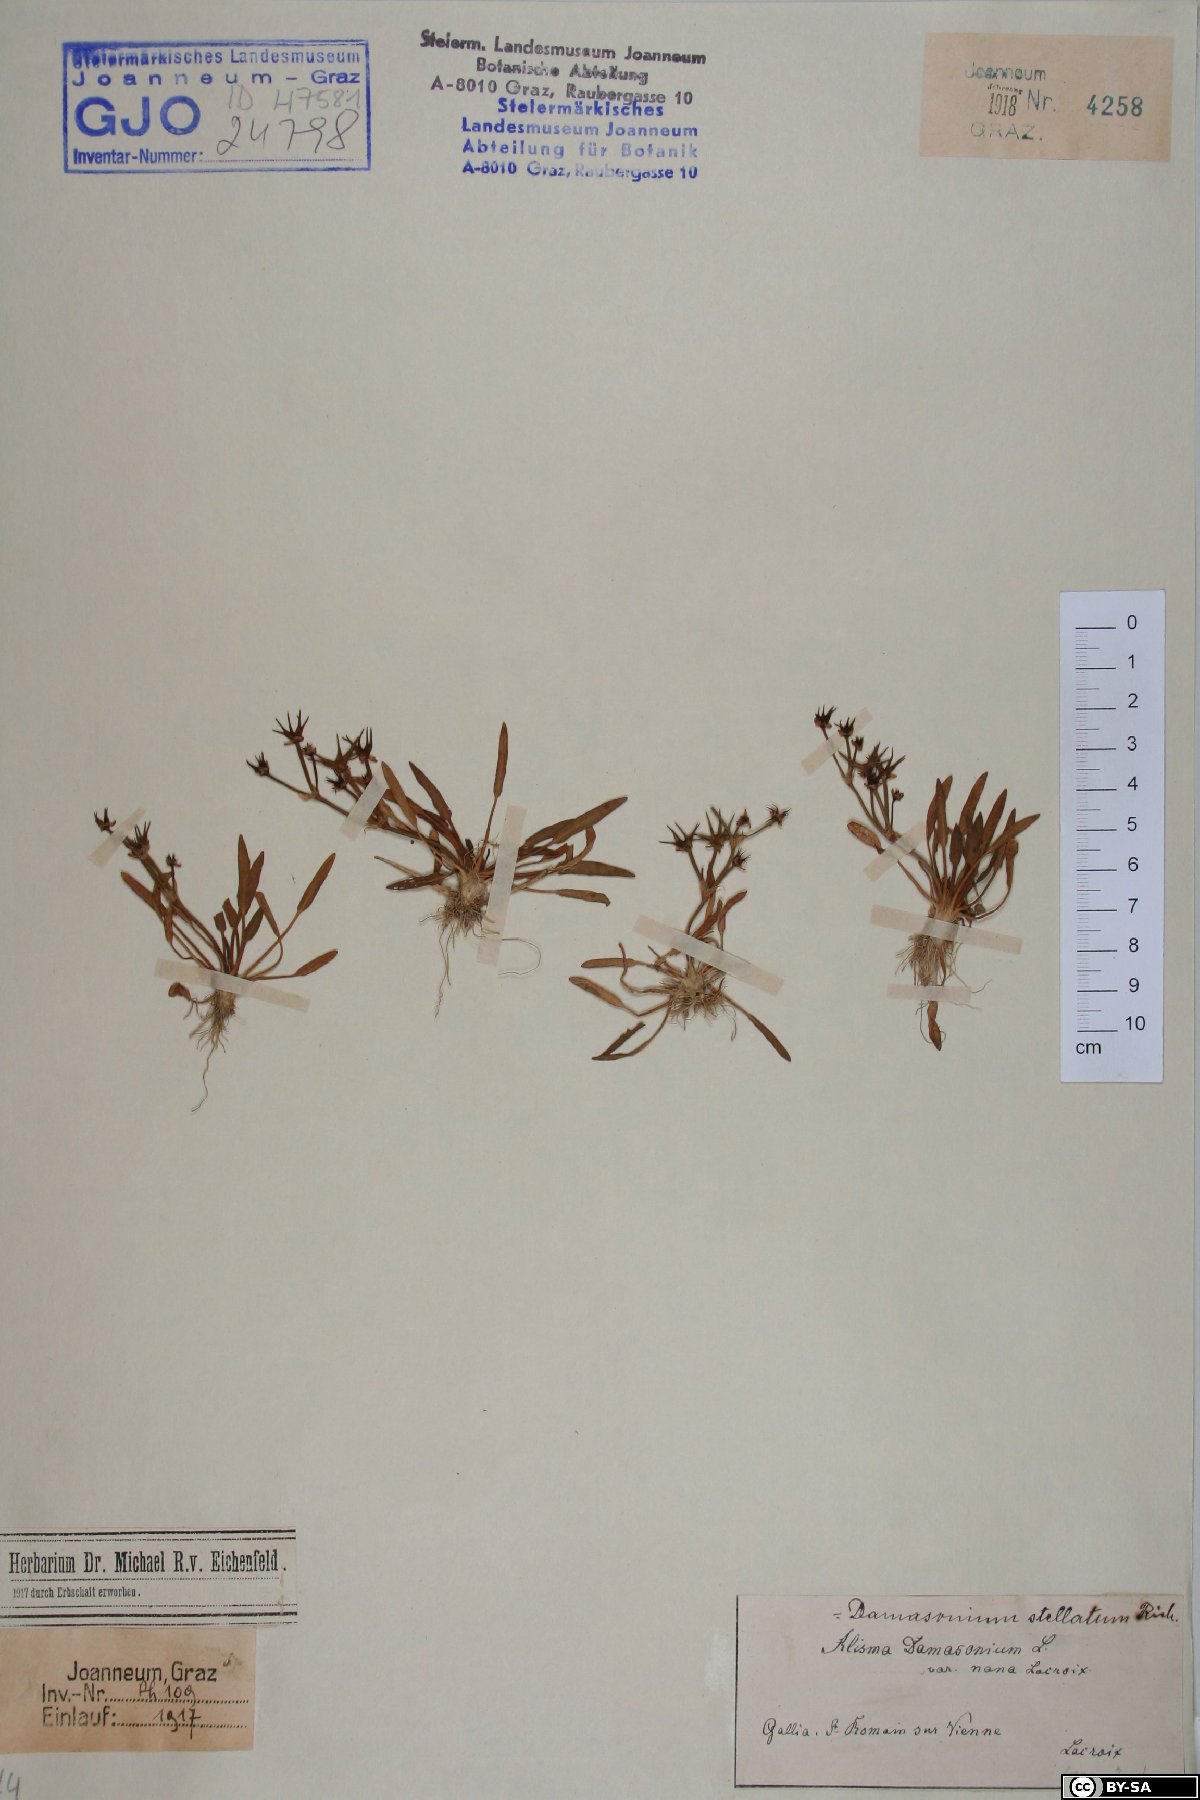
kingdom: Plantae
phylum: Tracheophyta
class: Liliopsida
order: Alismatales
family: Alismataceae
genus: Alisma
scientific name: Alisma damasonium
